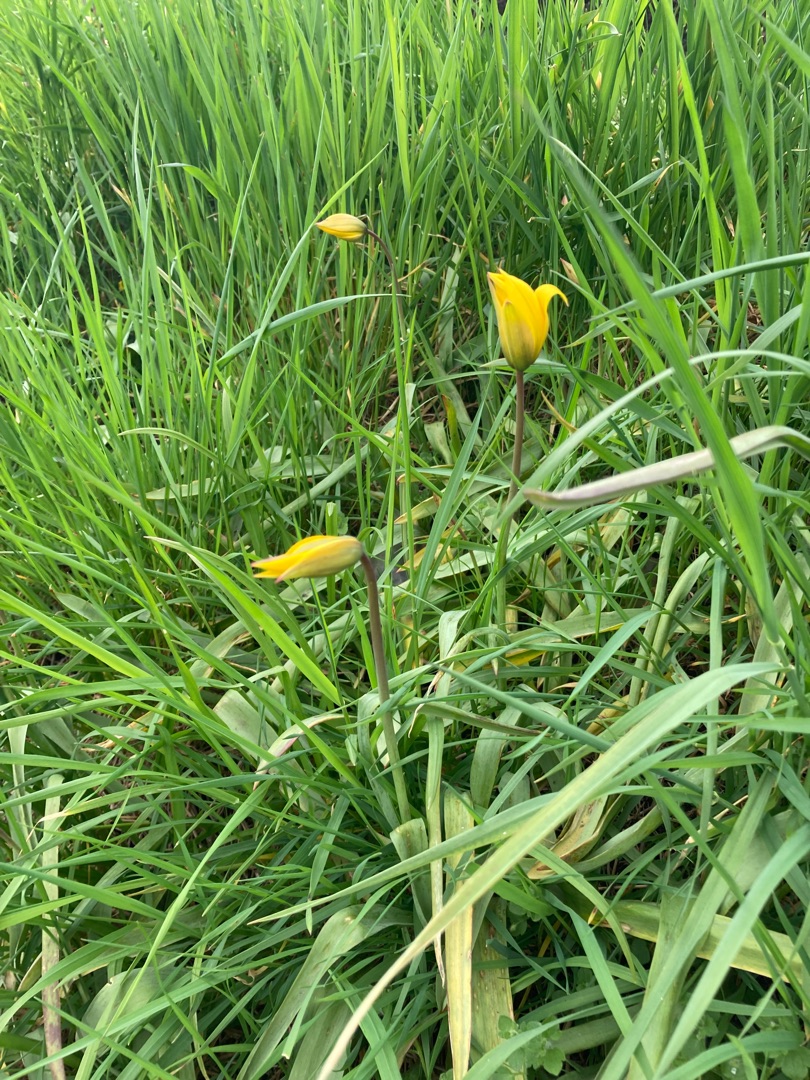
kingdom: Plantae
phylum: Tracheophyta
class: Liliopsida
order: Liliales
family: Liliaceae
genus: Tulipa
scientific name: Tulipa sylvestris
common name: Vild tulipan
